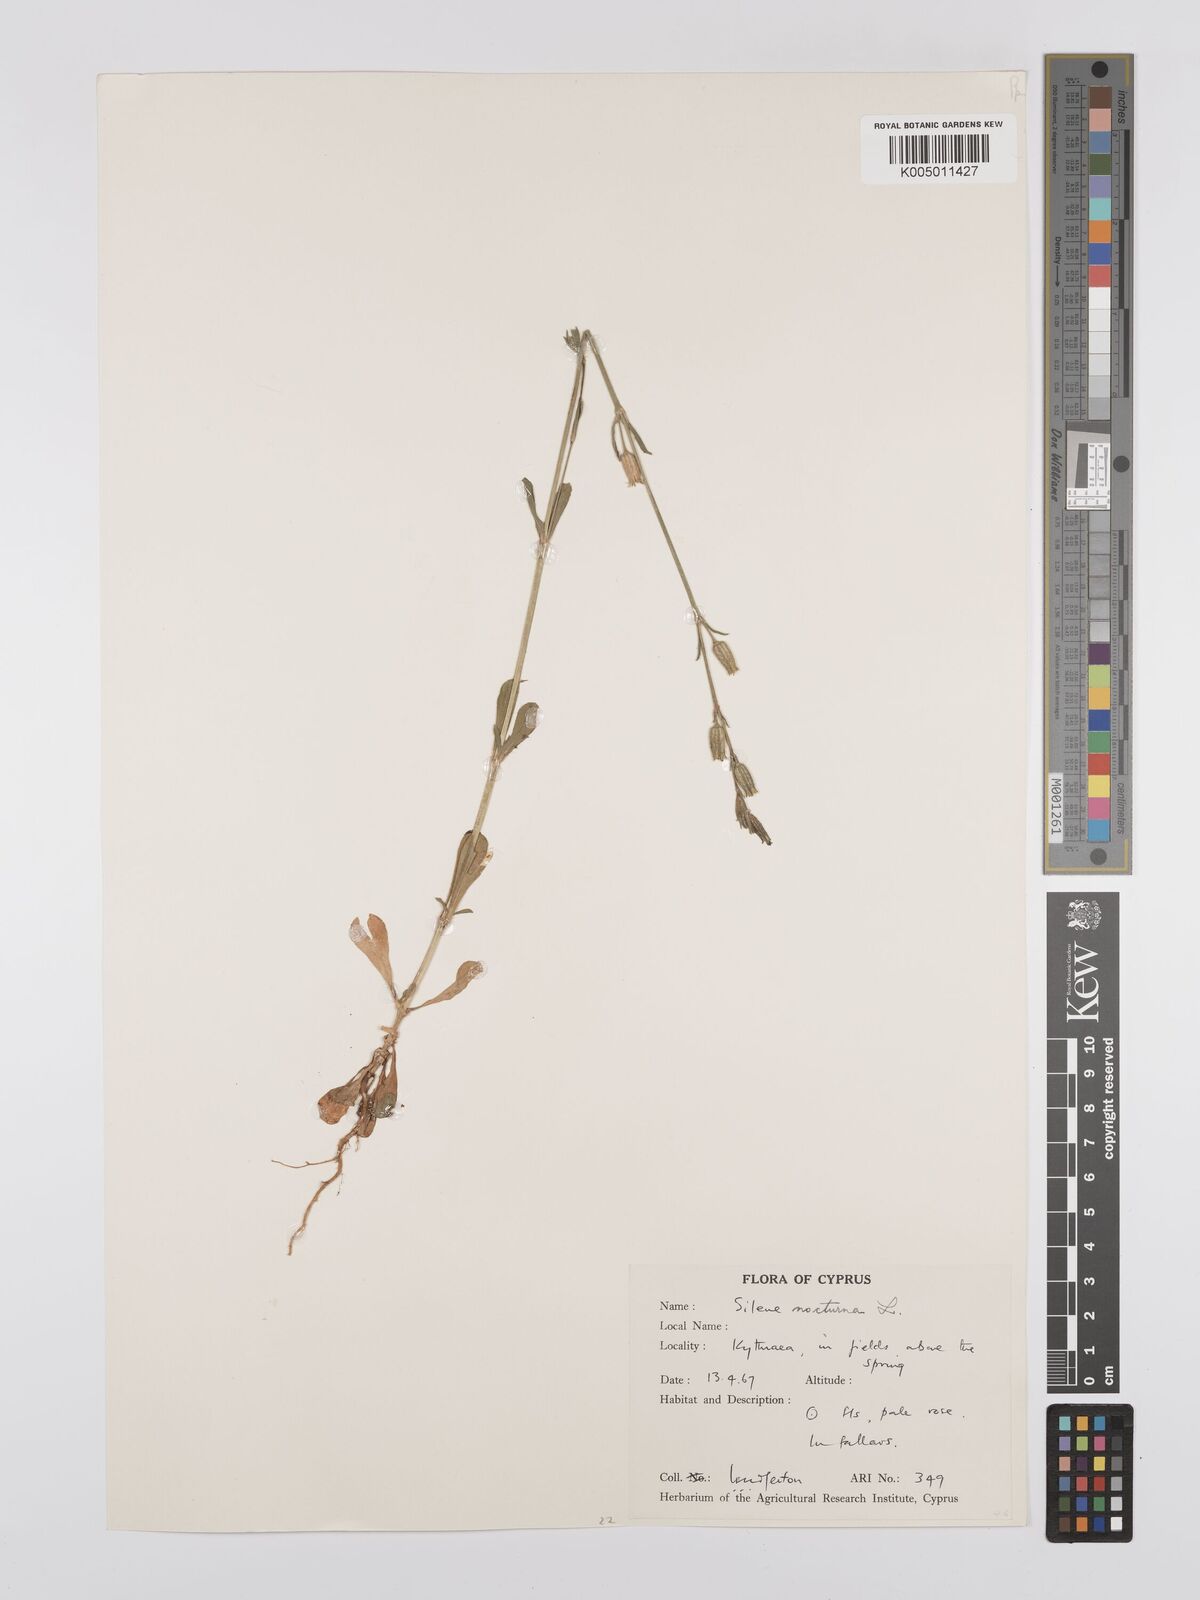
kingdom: Plantae
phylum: Tracheophyta
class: Magnoliopsida
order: Caryophyllales
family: Caryophyllaceae
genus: Silene
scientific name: Silene nocturna
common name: Mediterranean catchfly
